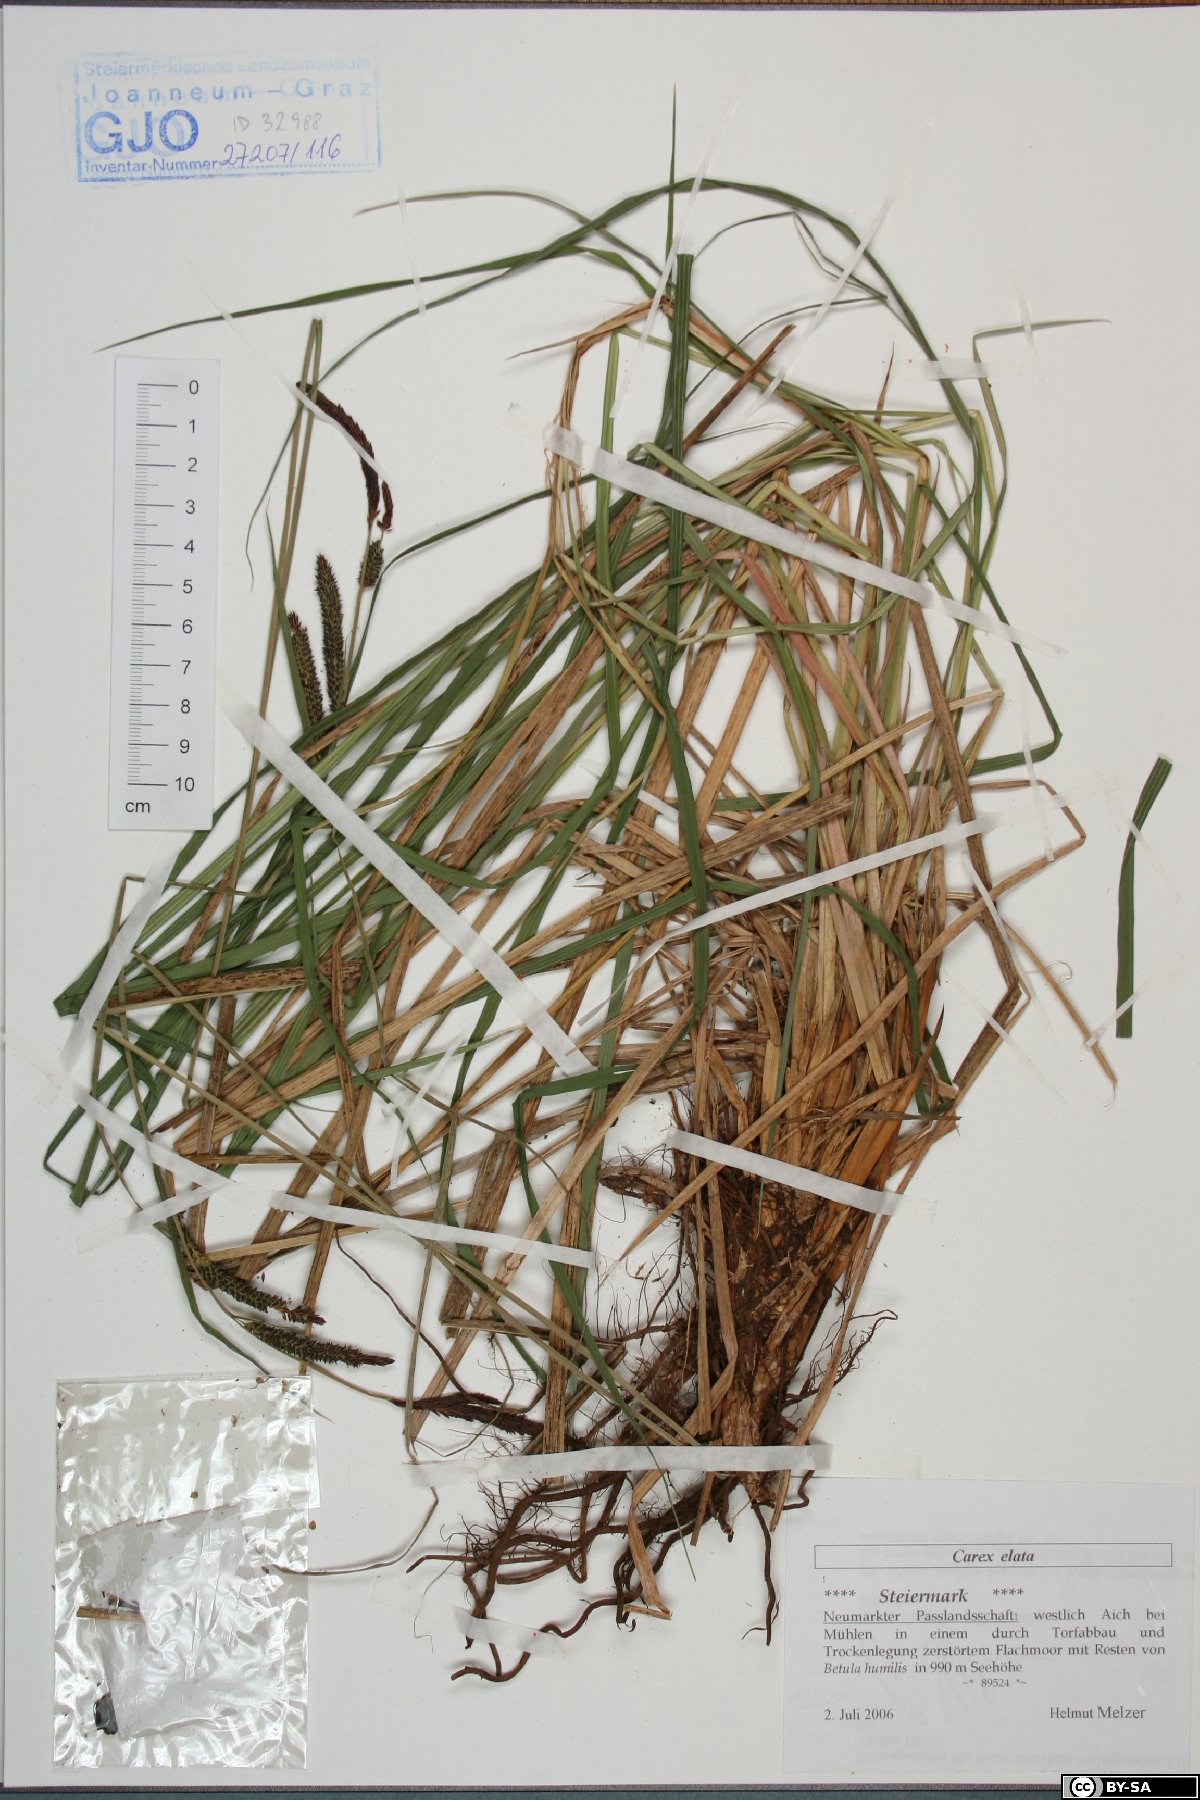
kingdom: Plantae
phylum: Tracheophyta
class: Liliopsida
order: Poales
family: Cyperaceae
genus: Carex
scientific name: Carex elata
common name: Tufted sedge
